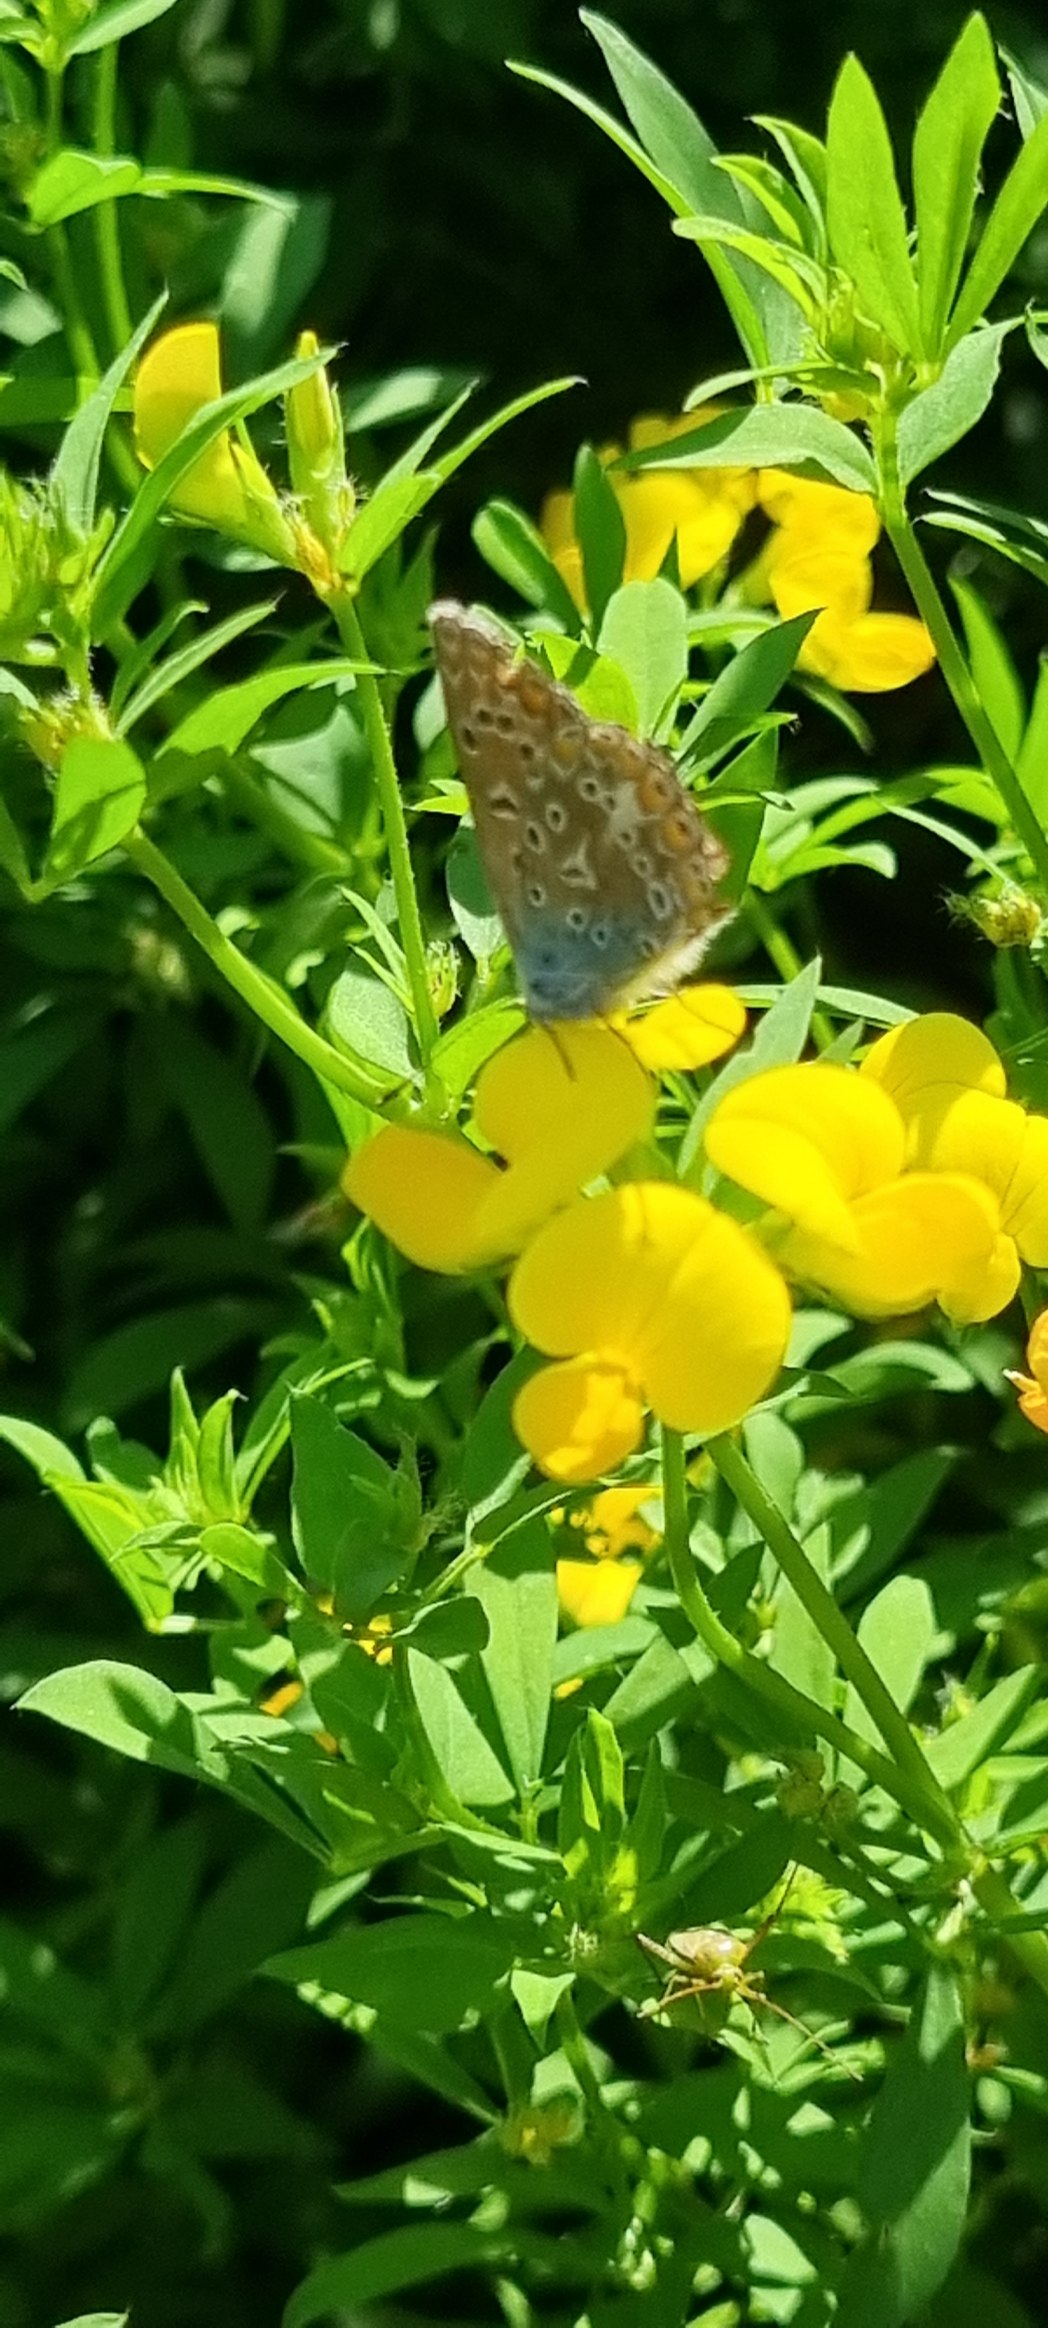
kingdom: Animalia
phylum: Arthropoda
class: Insecta
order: Lepidoptera
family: Lycaenidae
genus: Polyommatus
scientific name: Polyommatus icarus
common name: Almindelig blåfugl
